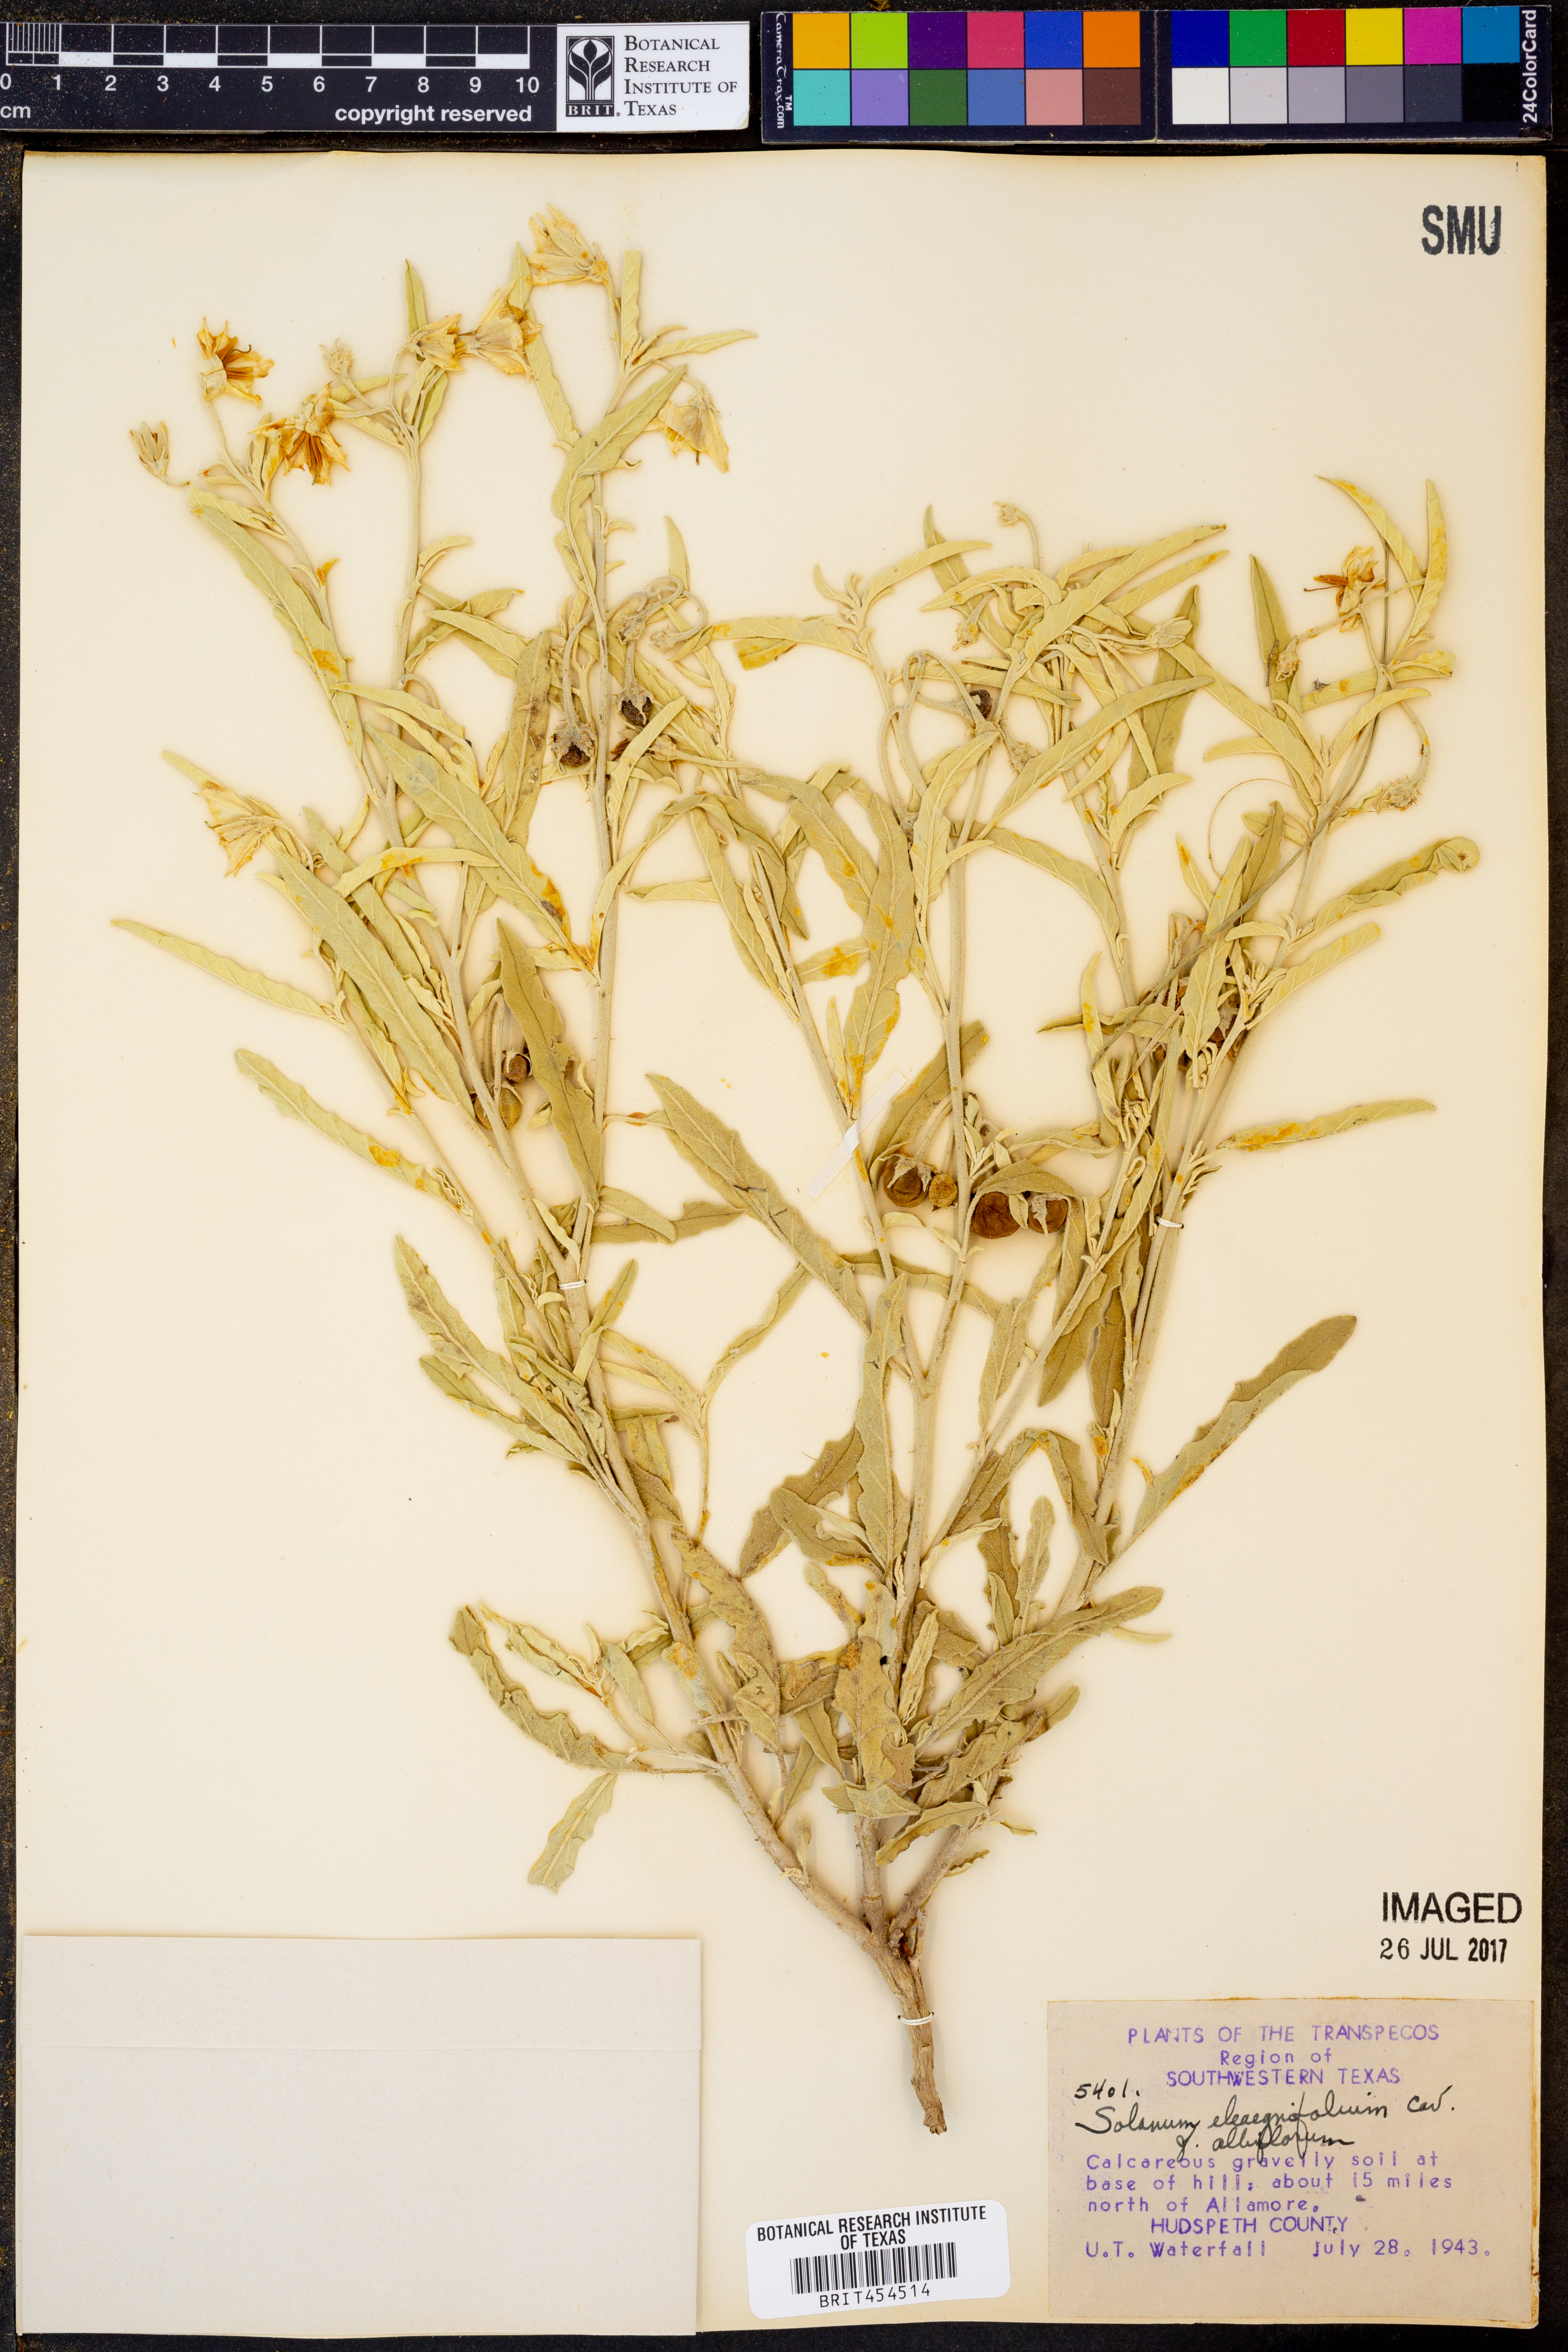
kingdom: Plantae
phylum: Tracheophyta
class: Magnoliopsida
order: Solanales
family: Solanaceae
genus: Solanum
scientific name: Solanum elaeagnifolium
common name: Silverleaf nightshade
